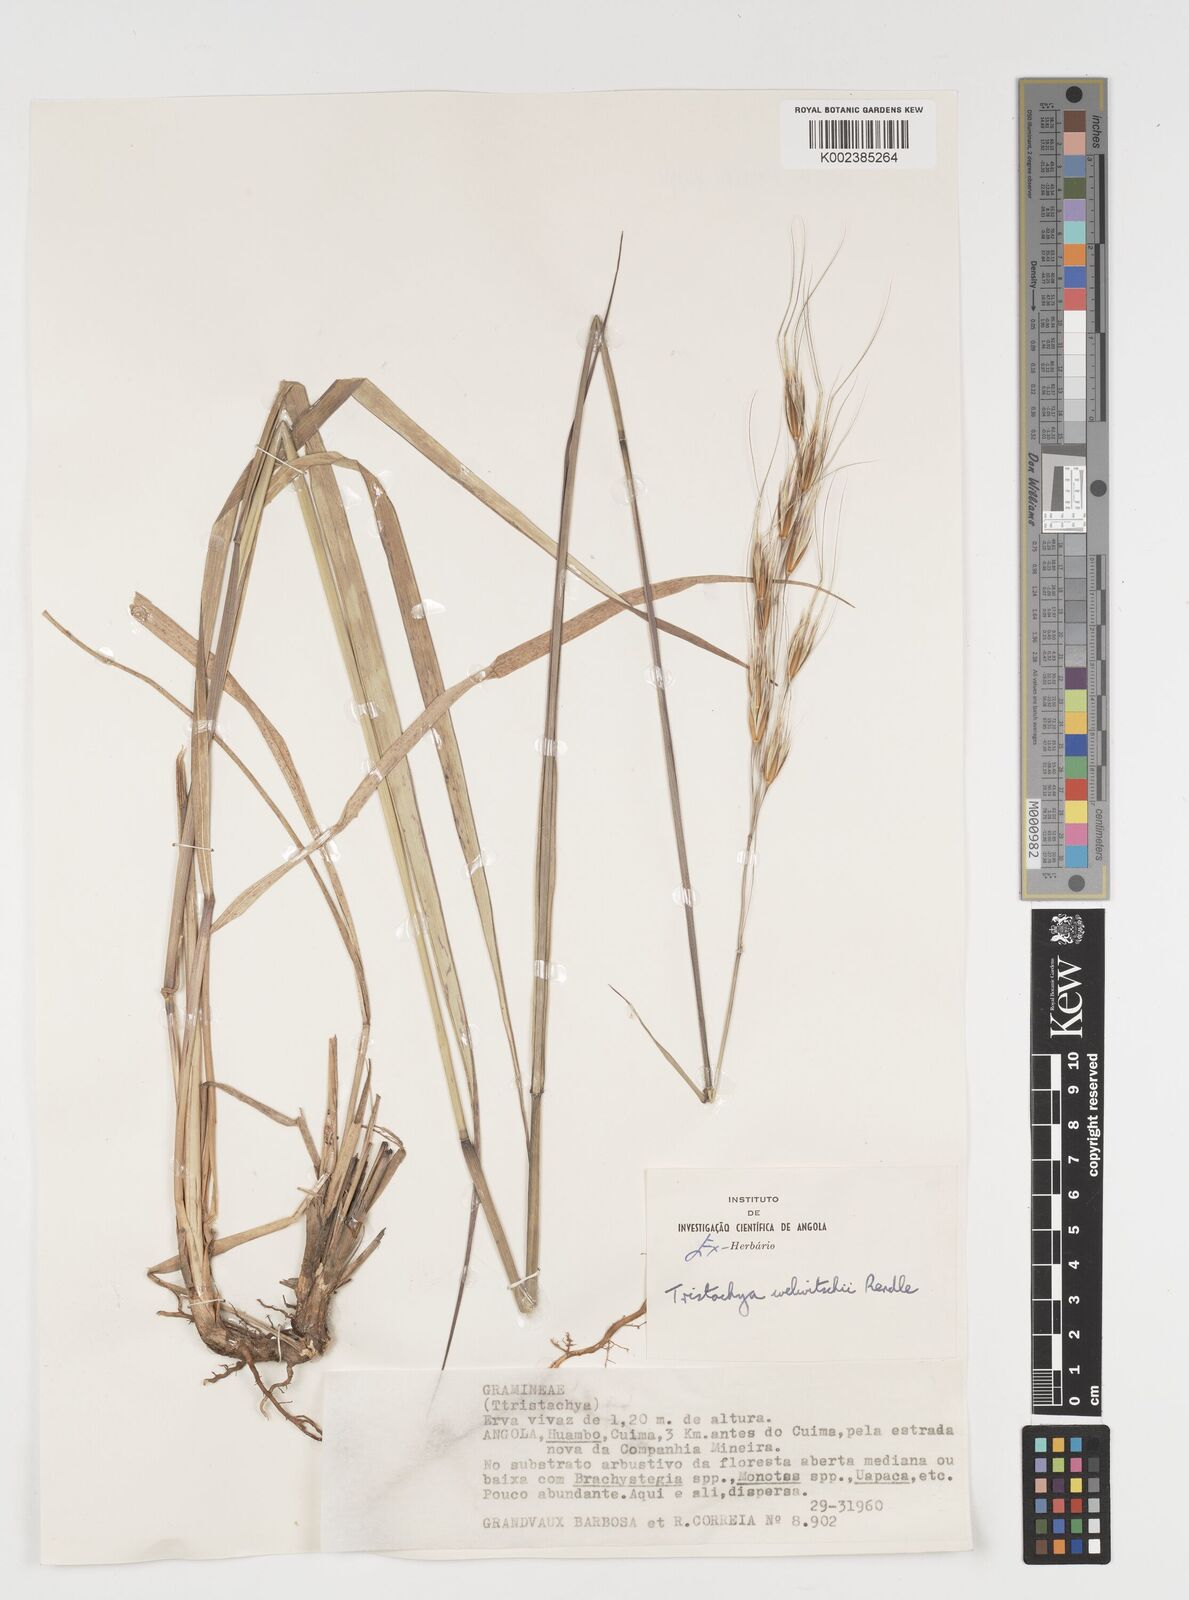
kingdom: Plantae
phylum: Tracheophyta
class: Liliopsida
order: Poales
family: Poaceae
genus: Tristachya
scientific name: Tristachya nodiglumis
